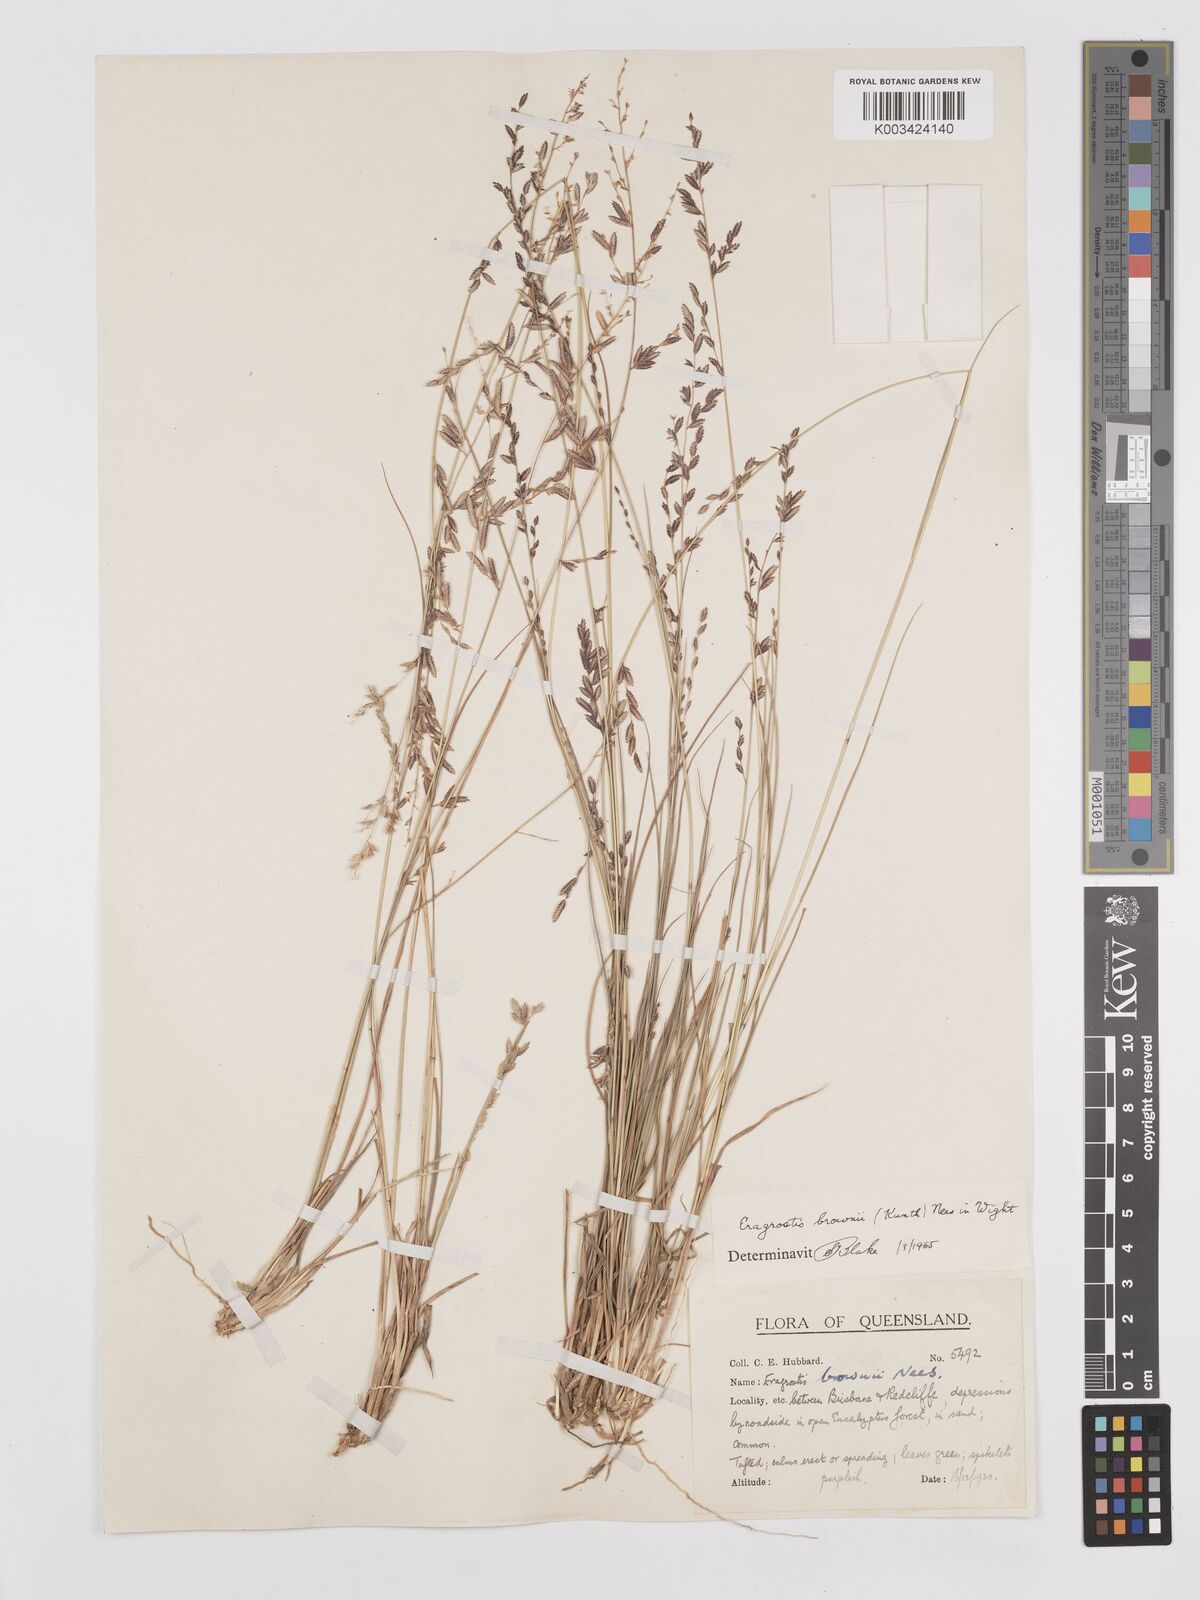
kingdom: Plantae
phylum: Tracheophyta
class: Liliopsida
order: Poales
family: Poaceae
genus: Eragrostis
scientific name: Eragrostis brownii
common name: Lovegrass
